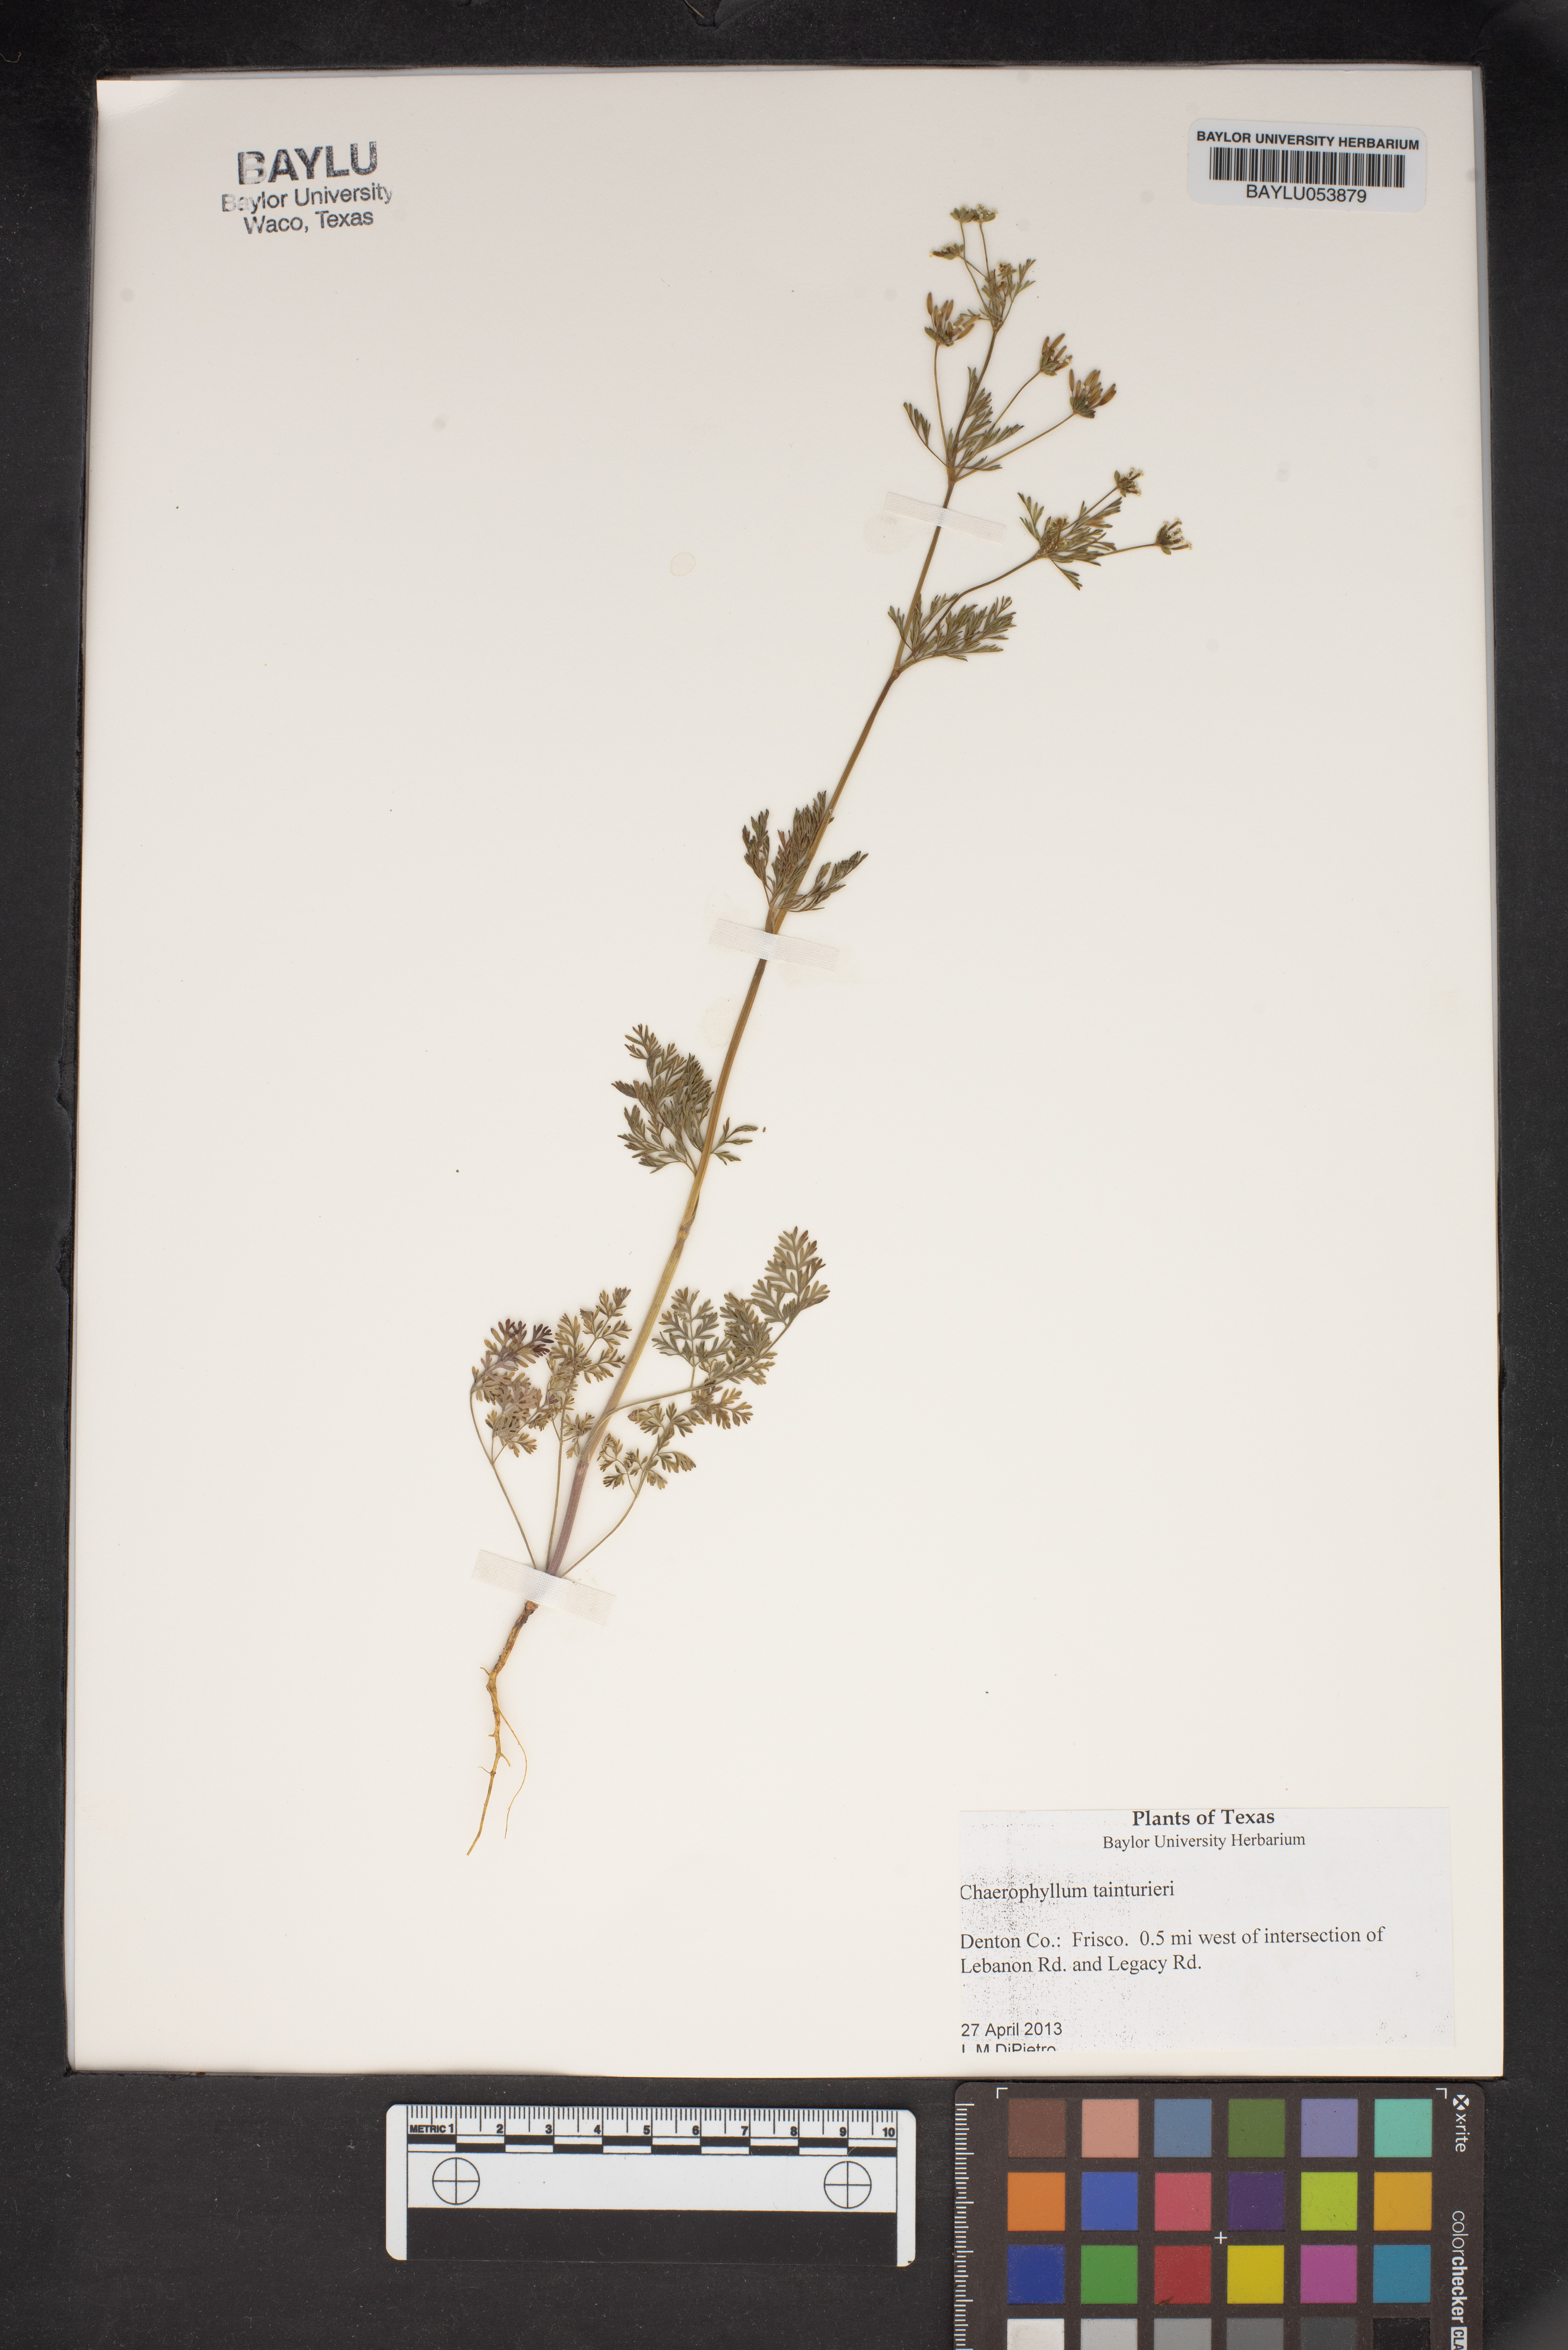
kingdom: Plantae
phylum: Tracheophyta
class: Magnoliopsida
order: Apiales
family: Apiaceae
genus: Chaerophyllum
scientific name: Chaerophyllum tainturieri
